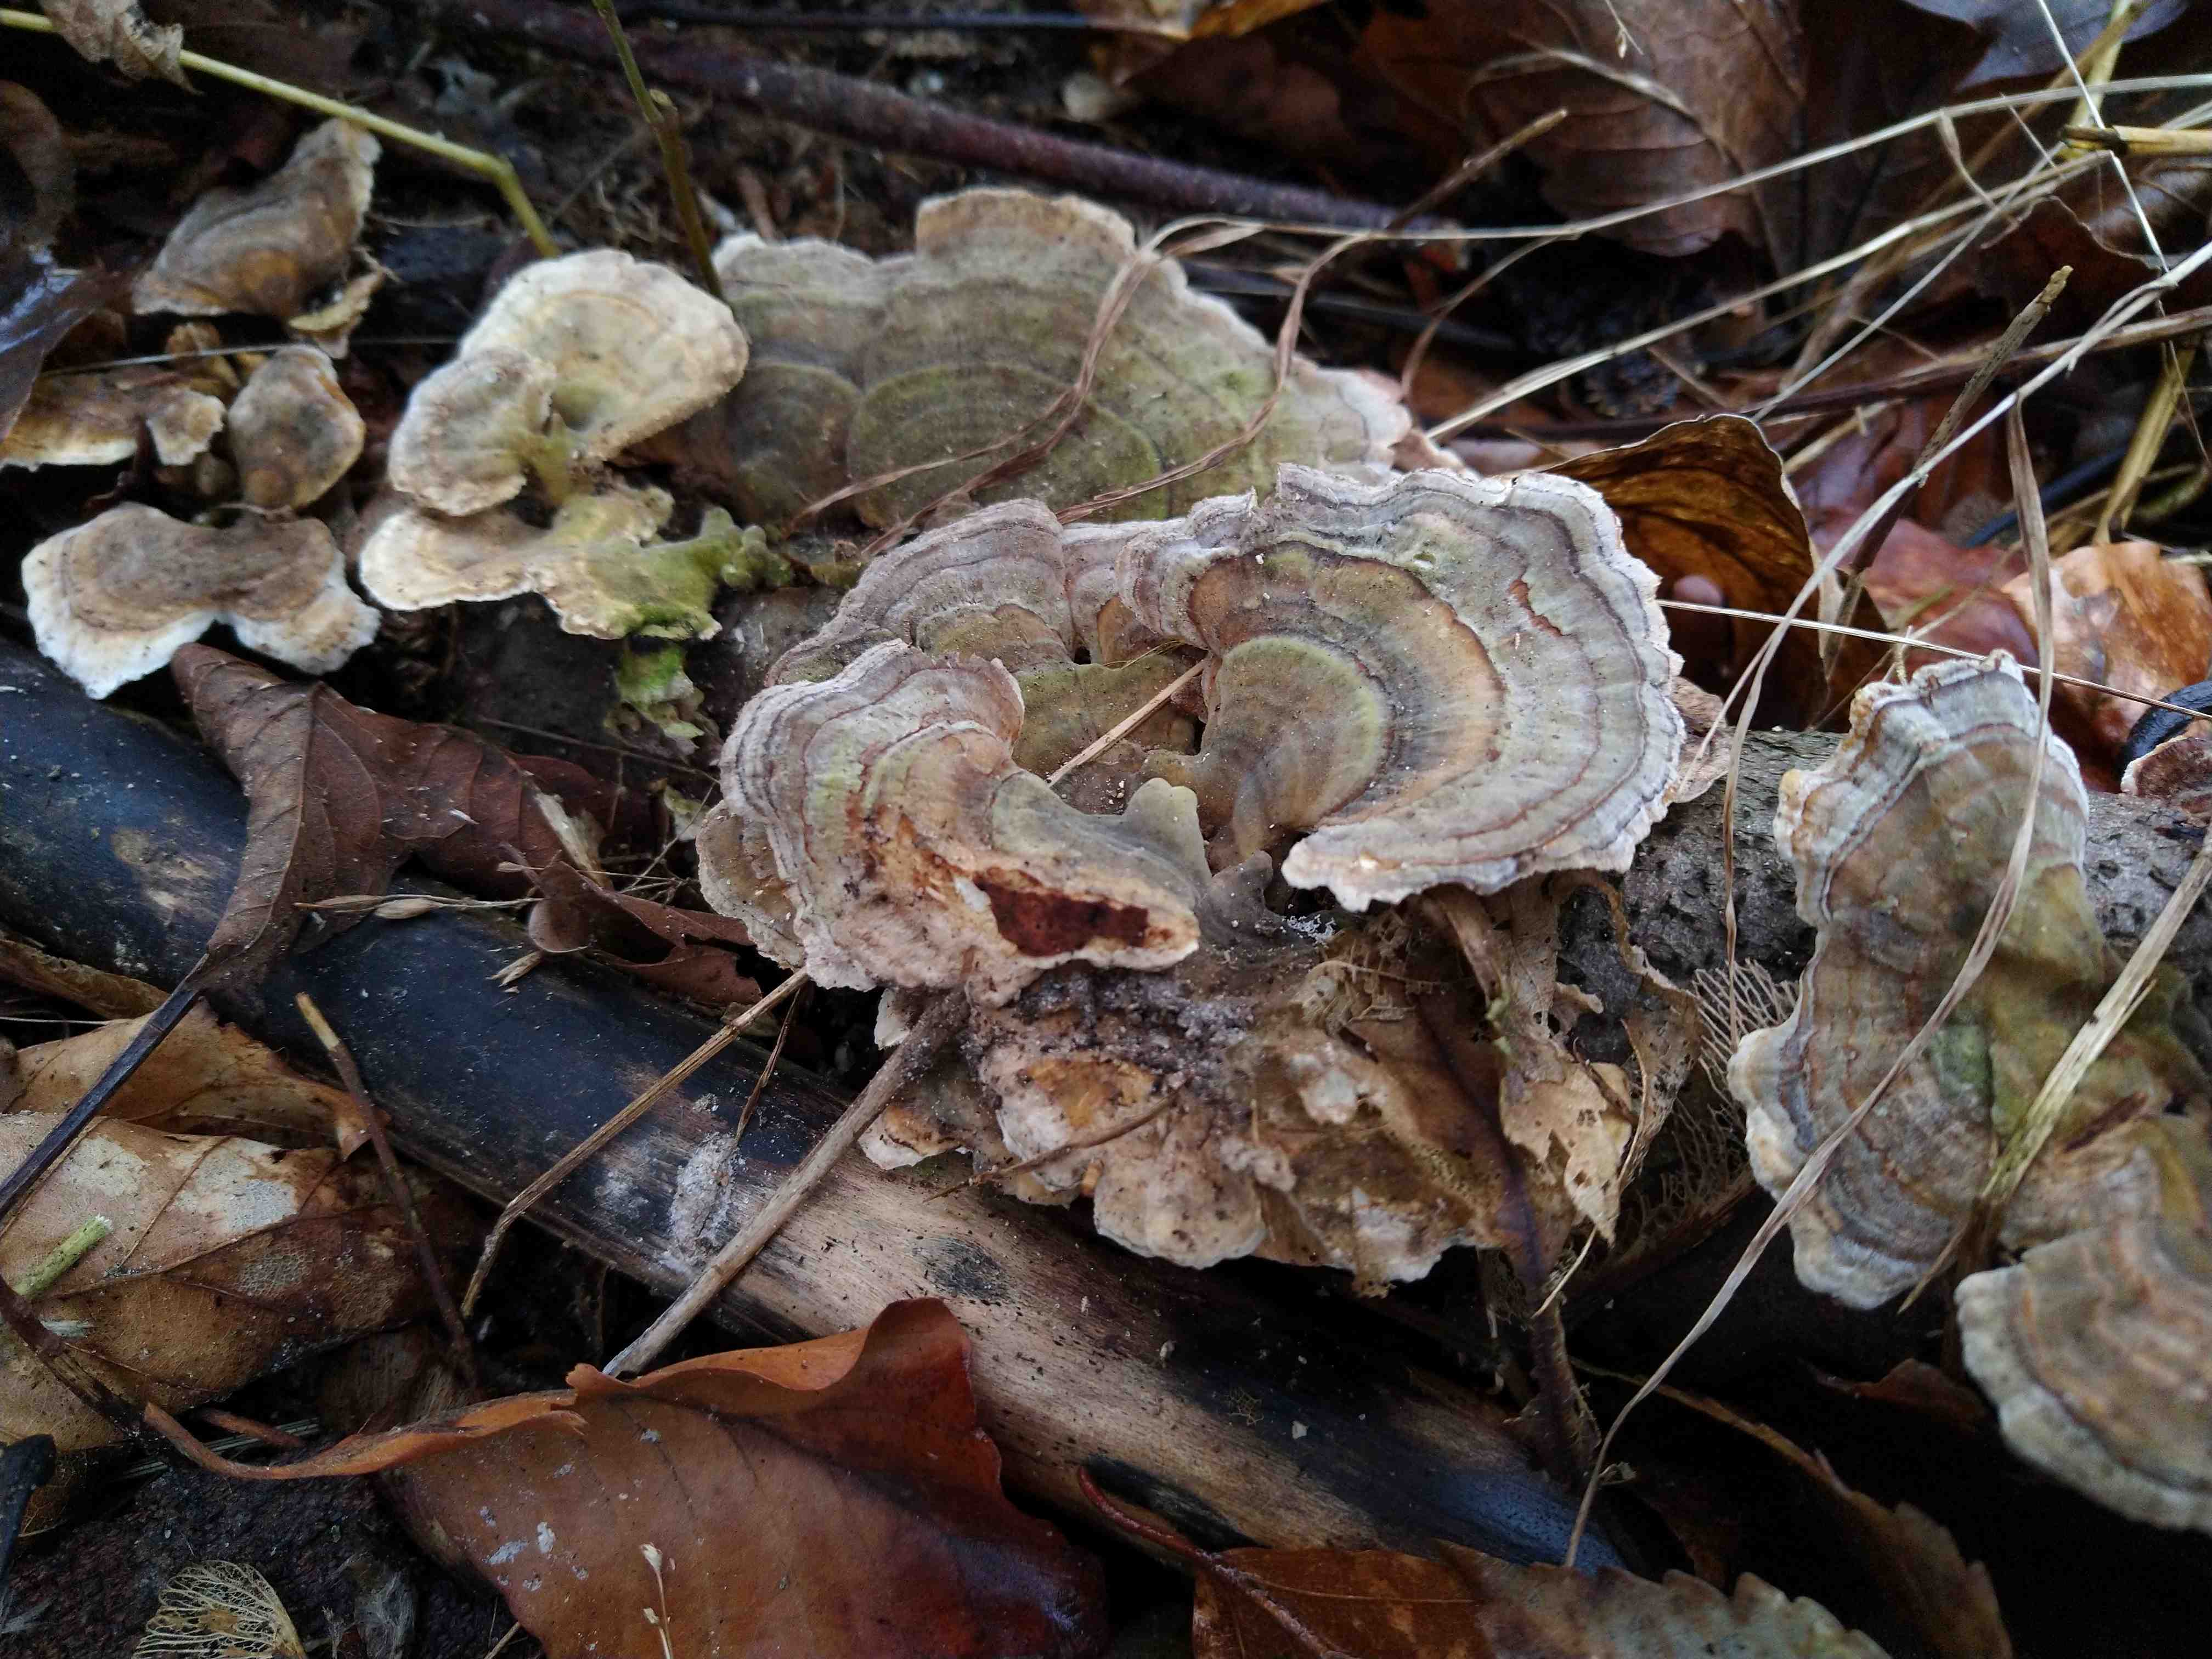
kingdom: Fungi
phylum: Basidiomycota
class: Agaricomycetes
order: Polyporales
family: Polyporaceae
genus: Trametes
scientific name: Trametes versicolor
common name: broget læderporesvamp
